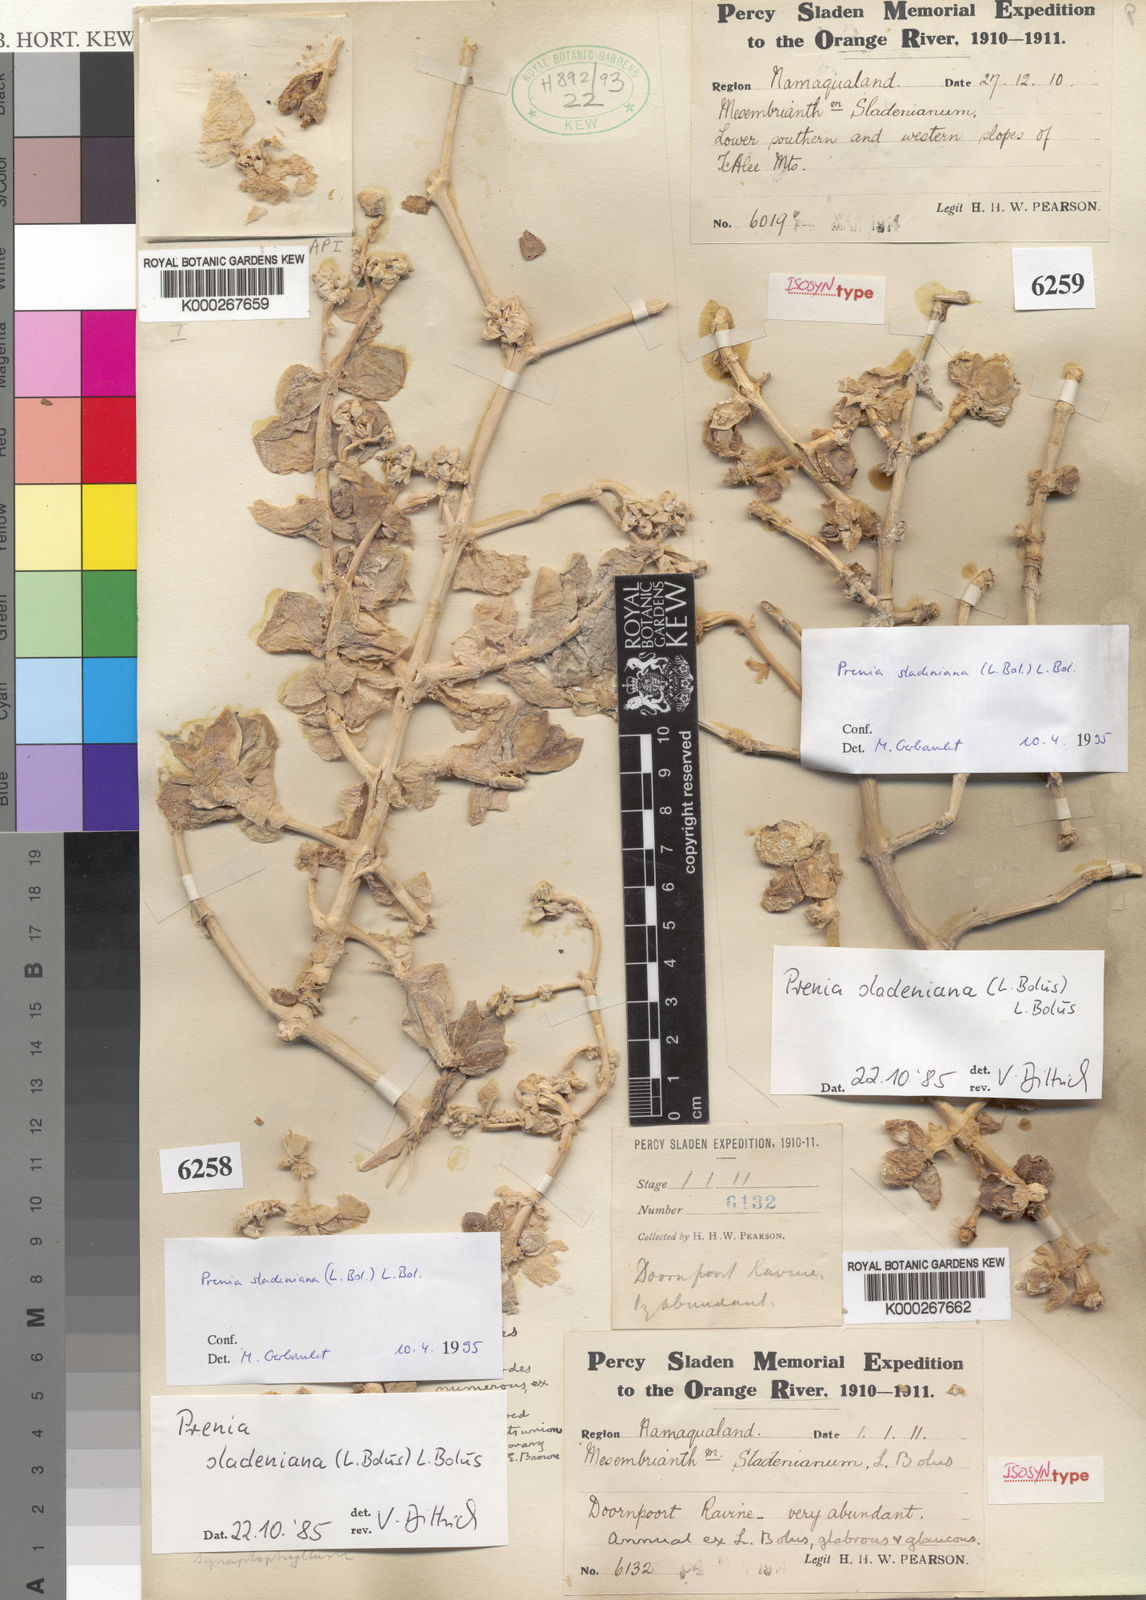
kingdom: Plantae
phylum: Tracheophyta
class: Magnoliopsida
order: Caryophyllales
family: Aizoaceae
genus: Mesembryanthemum
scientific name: Mesembryanthemum
